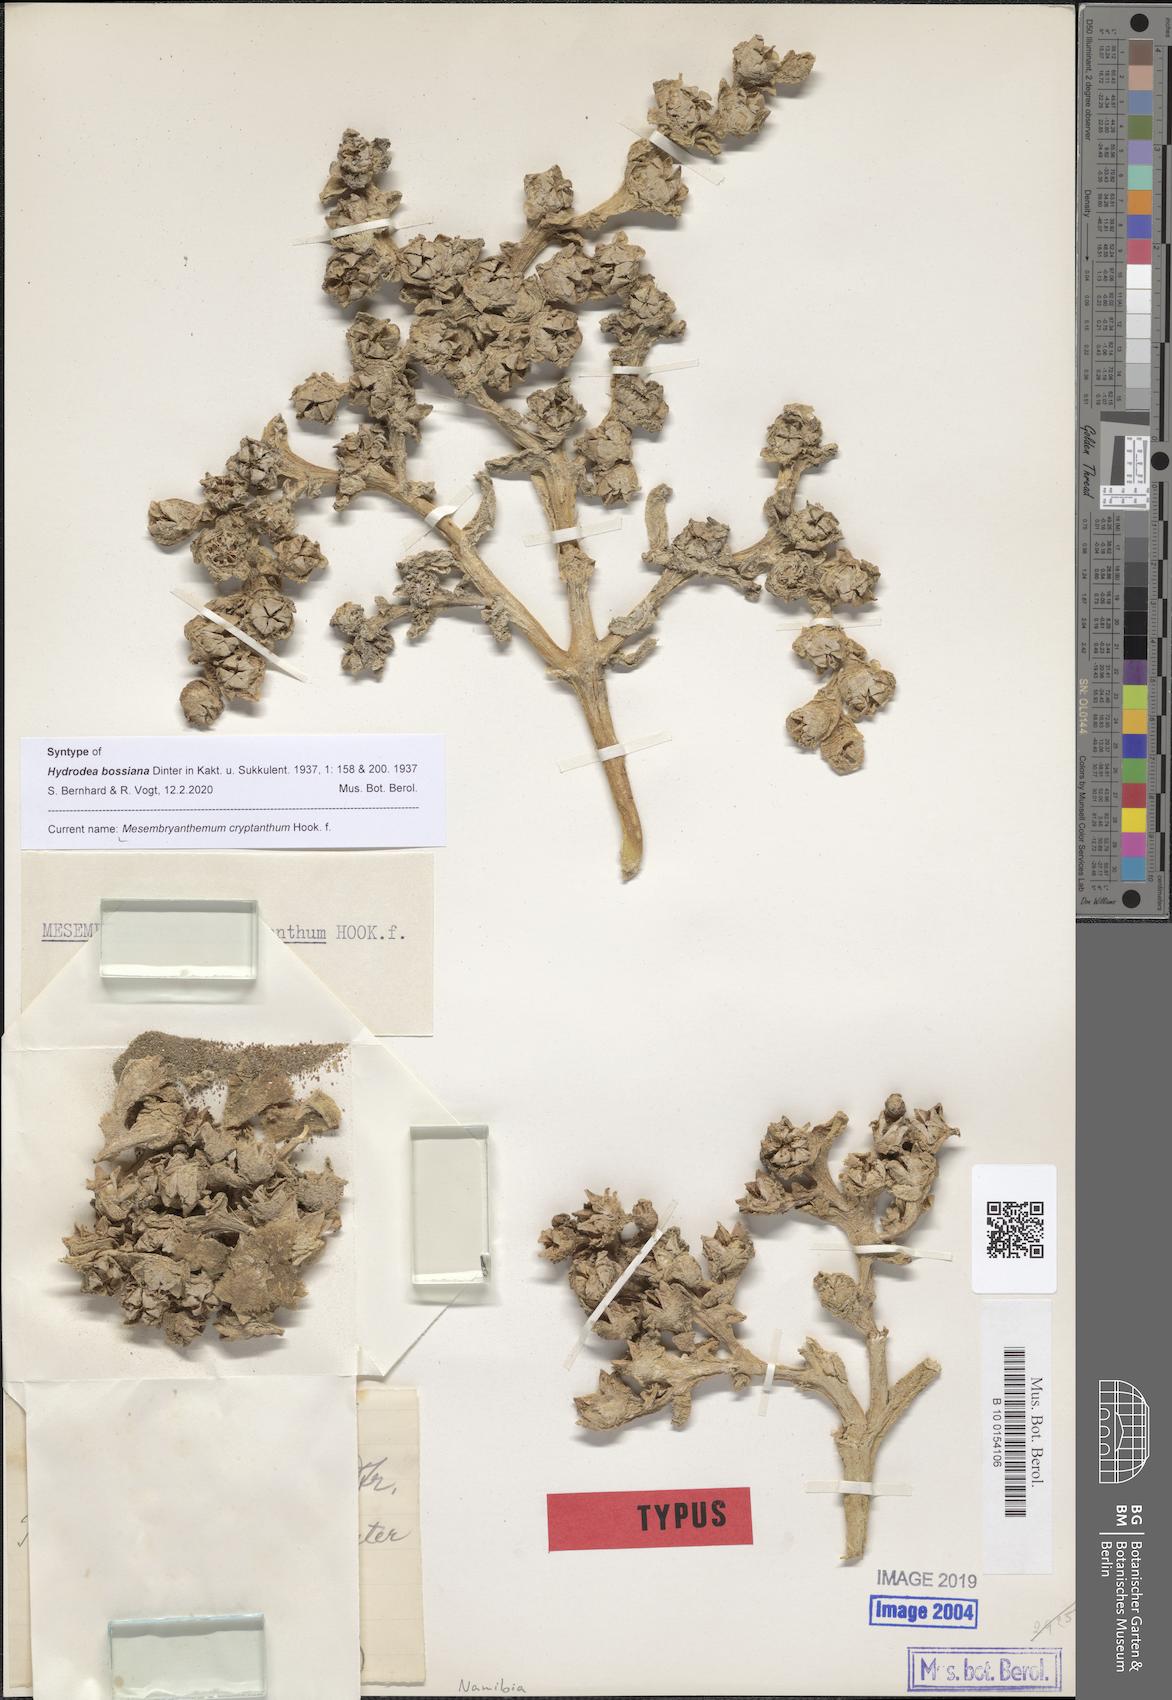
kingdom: Plantae
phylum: Tracheophyta
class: Magnoliopsida
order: Caryophyllales
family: Aizoaceae
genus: Mesembryanthemum
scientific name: Mesembryanthemum cryptanthum
